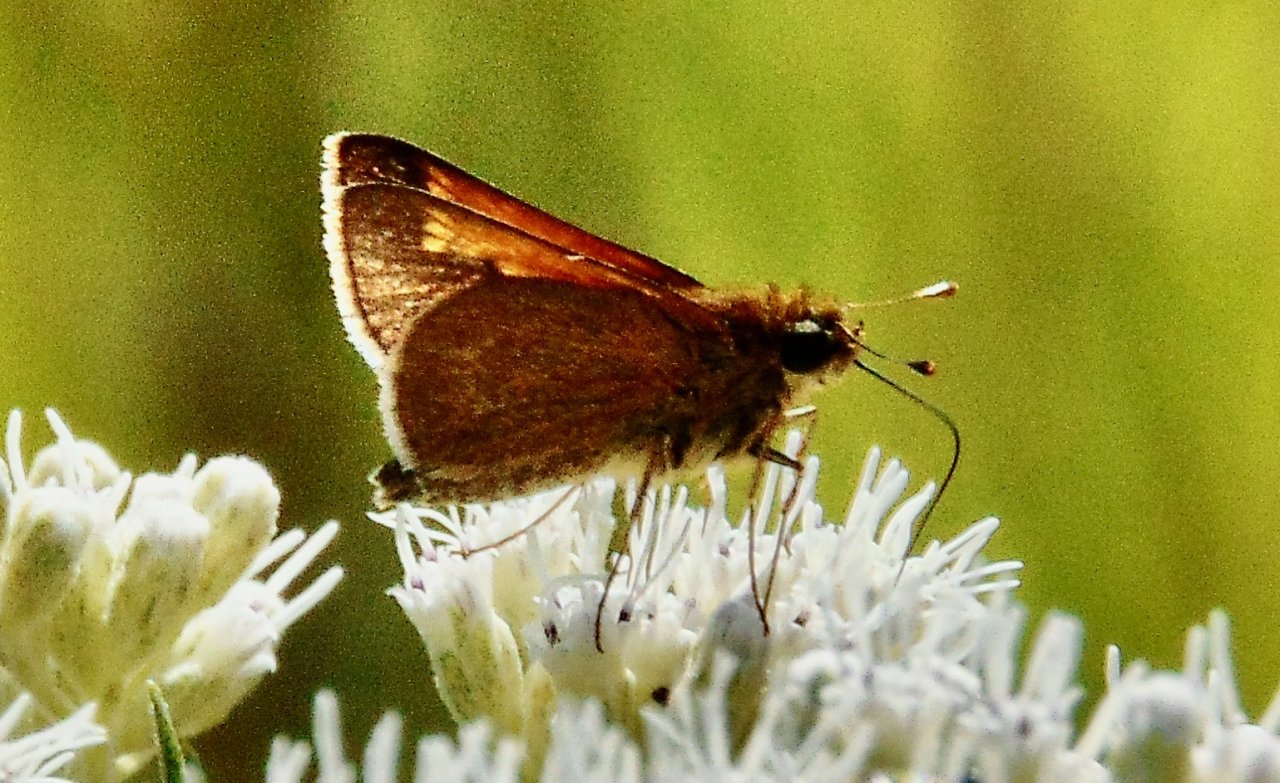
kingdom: Animalia
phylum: Arthropoda
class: Insecta
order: Lepidoptera
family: Hesperiidae
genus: Polites
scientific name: Polites themistocles
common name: Tawny-edged Skipper
